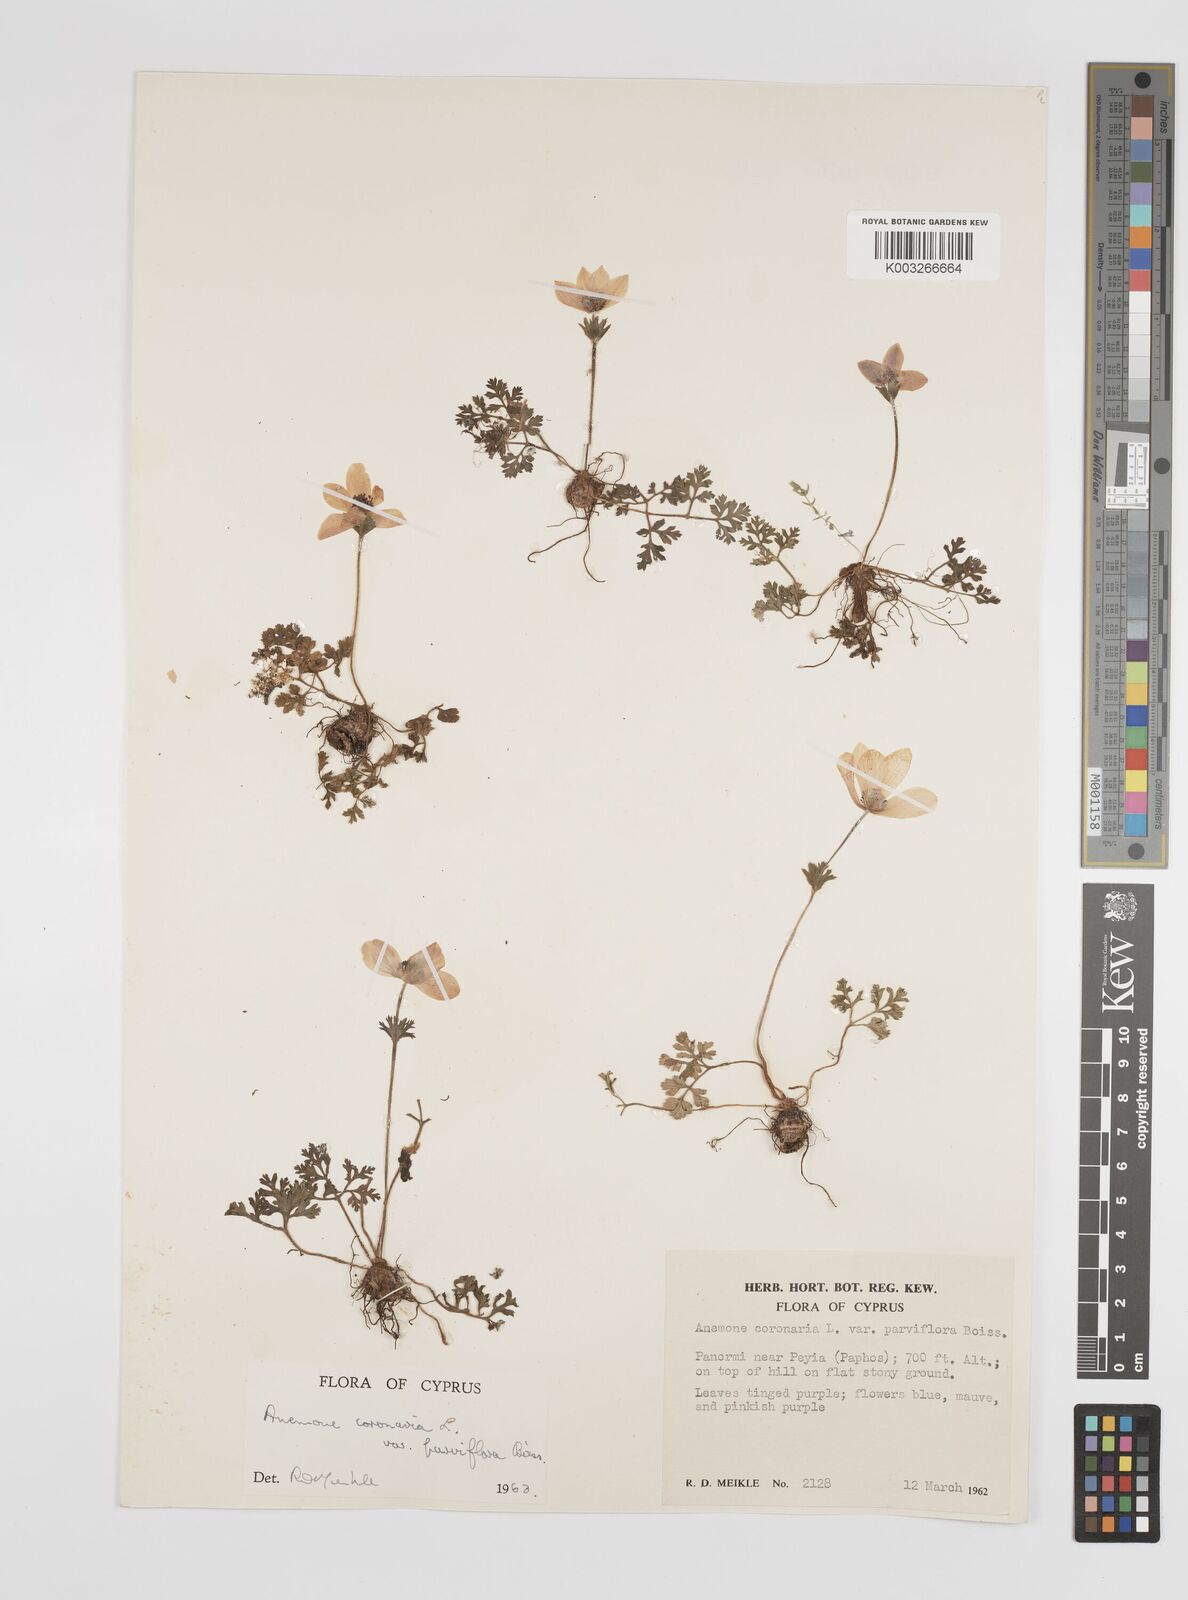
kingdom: Plantae
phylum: Tracheophyta
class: Magnoliopsida
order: Ranunculales
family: Ranunculaceae
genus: Anemone
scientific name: Anemone coronaria
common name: Poppy anemone
